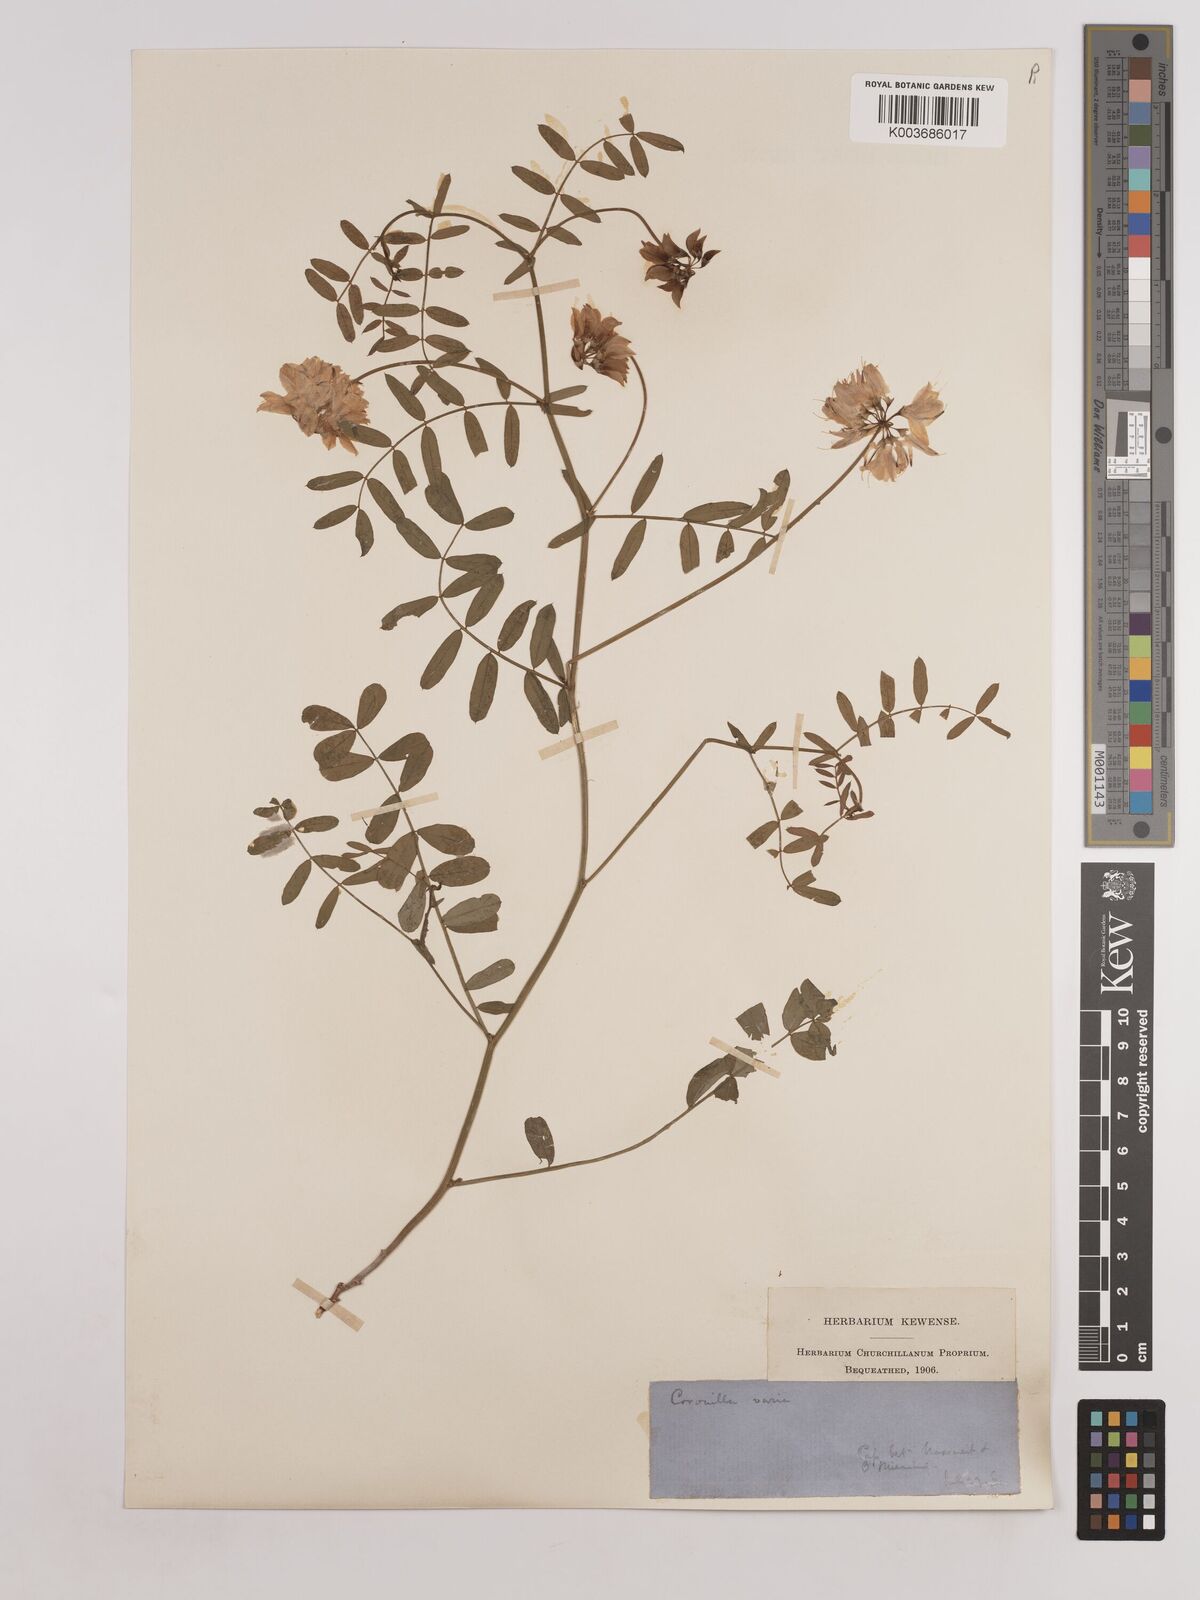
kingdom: Plantae
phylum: Tracheophyta
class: Magnoliopsida
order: Fabales
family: Fabaceae
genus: Coronilla
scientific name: Coronilla varia
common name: Crownvetch
